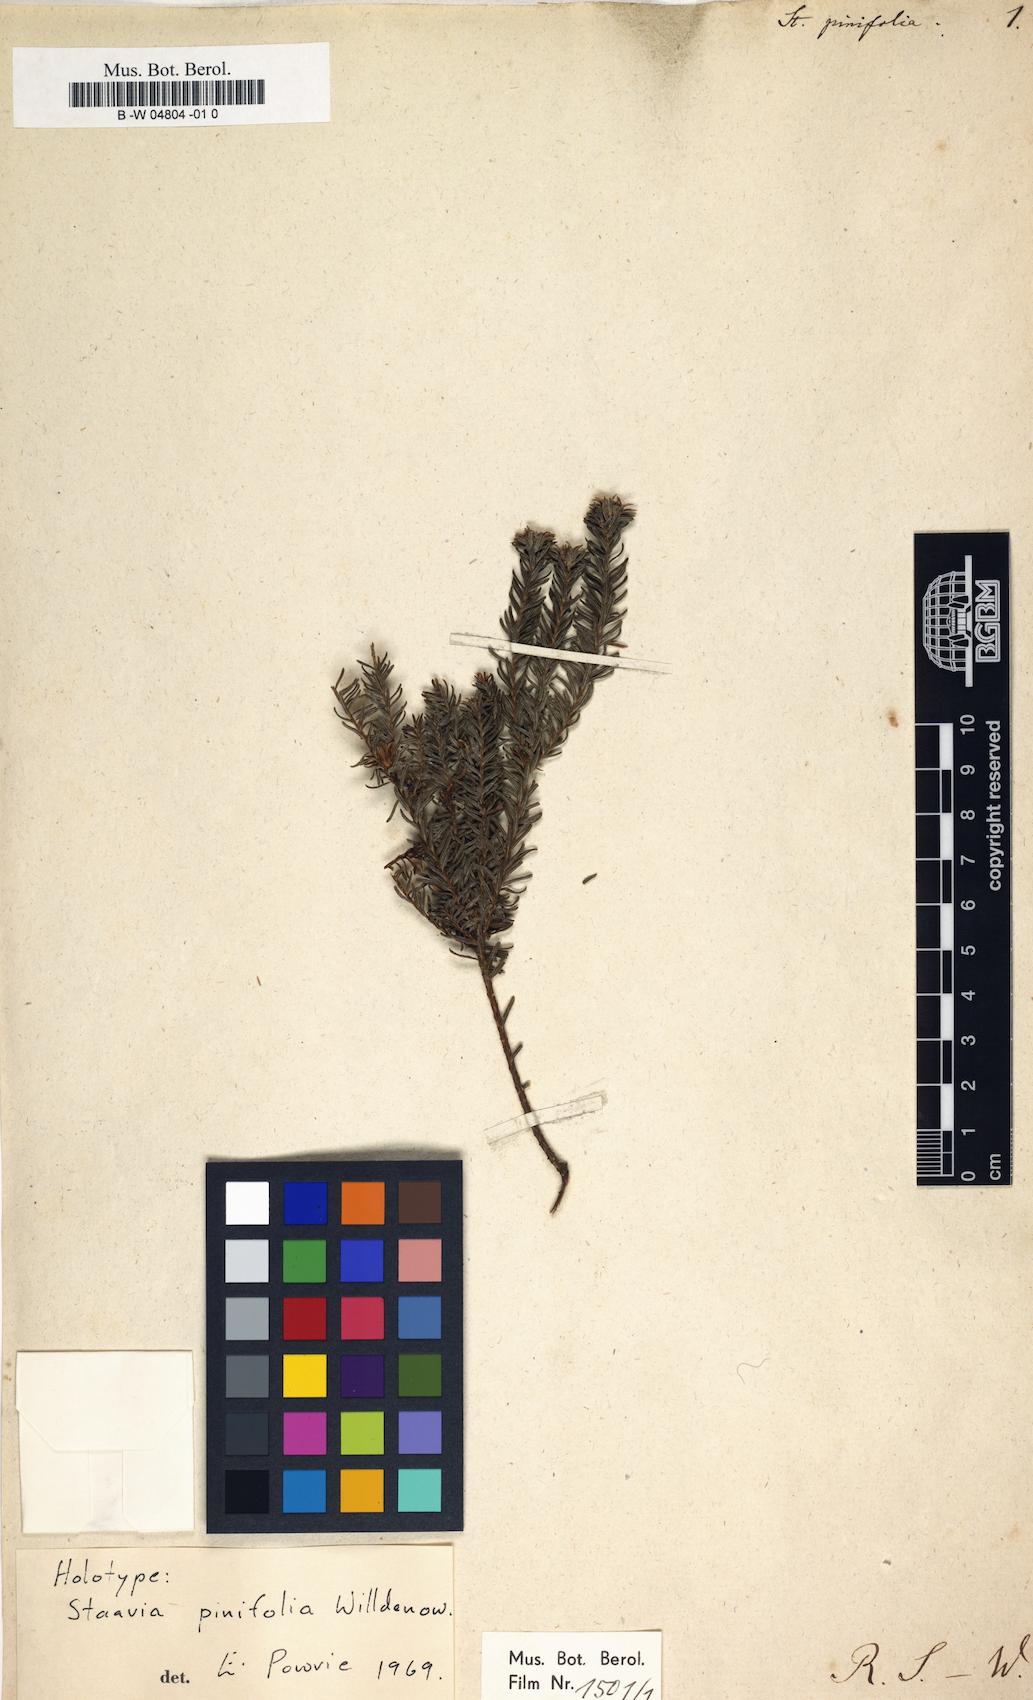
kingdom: Plantae
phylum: Tracheophyta
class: Magnoliopsida
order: Bruniales
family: Bruniaceae
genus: Staavia
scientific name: Staavia pinifolia
